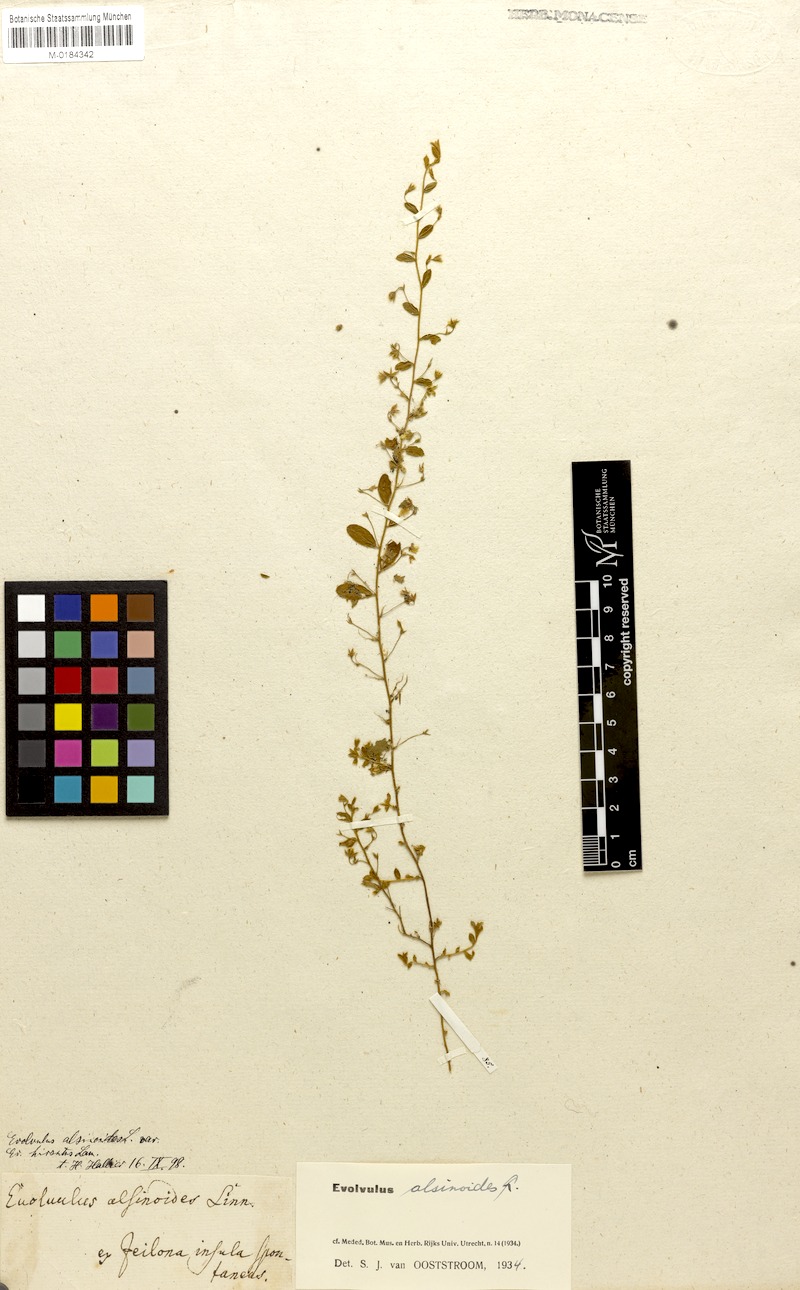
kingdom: Plantae
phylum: Tracheophyta
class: Magnoliopsida
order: Solanales
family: Convolvulaceae
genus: Evolvulus
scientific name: Evolvulus alsinoides
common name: Slender dwarf morning-glory
